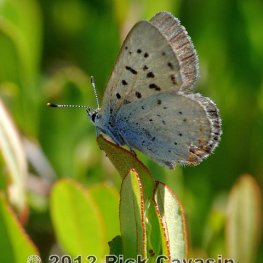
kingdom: Animalia
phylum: Arthropoda
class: Insecta
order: Lepidoptera
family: Sesiidae
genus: Sesia
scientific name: Sesia Lycaena epixanthe
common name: Bog Copper
